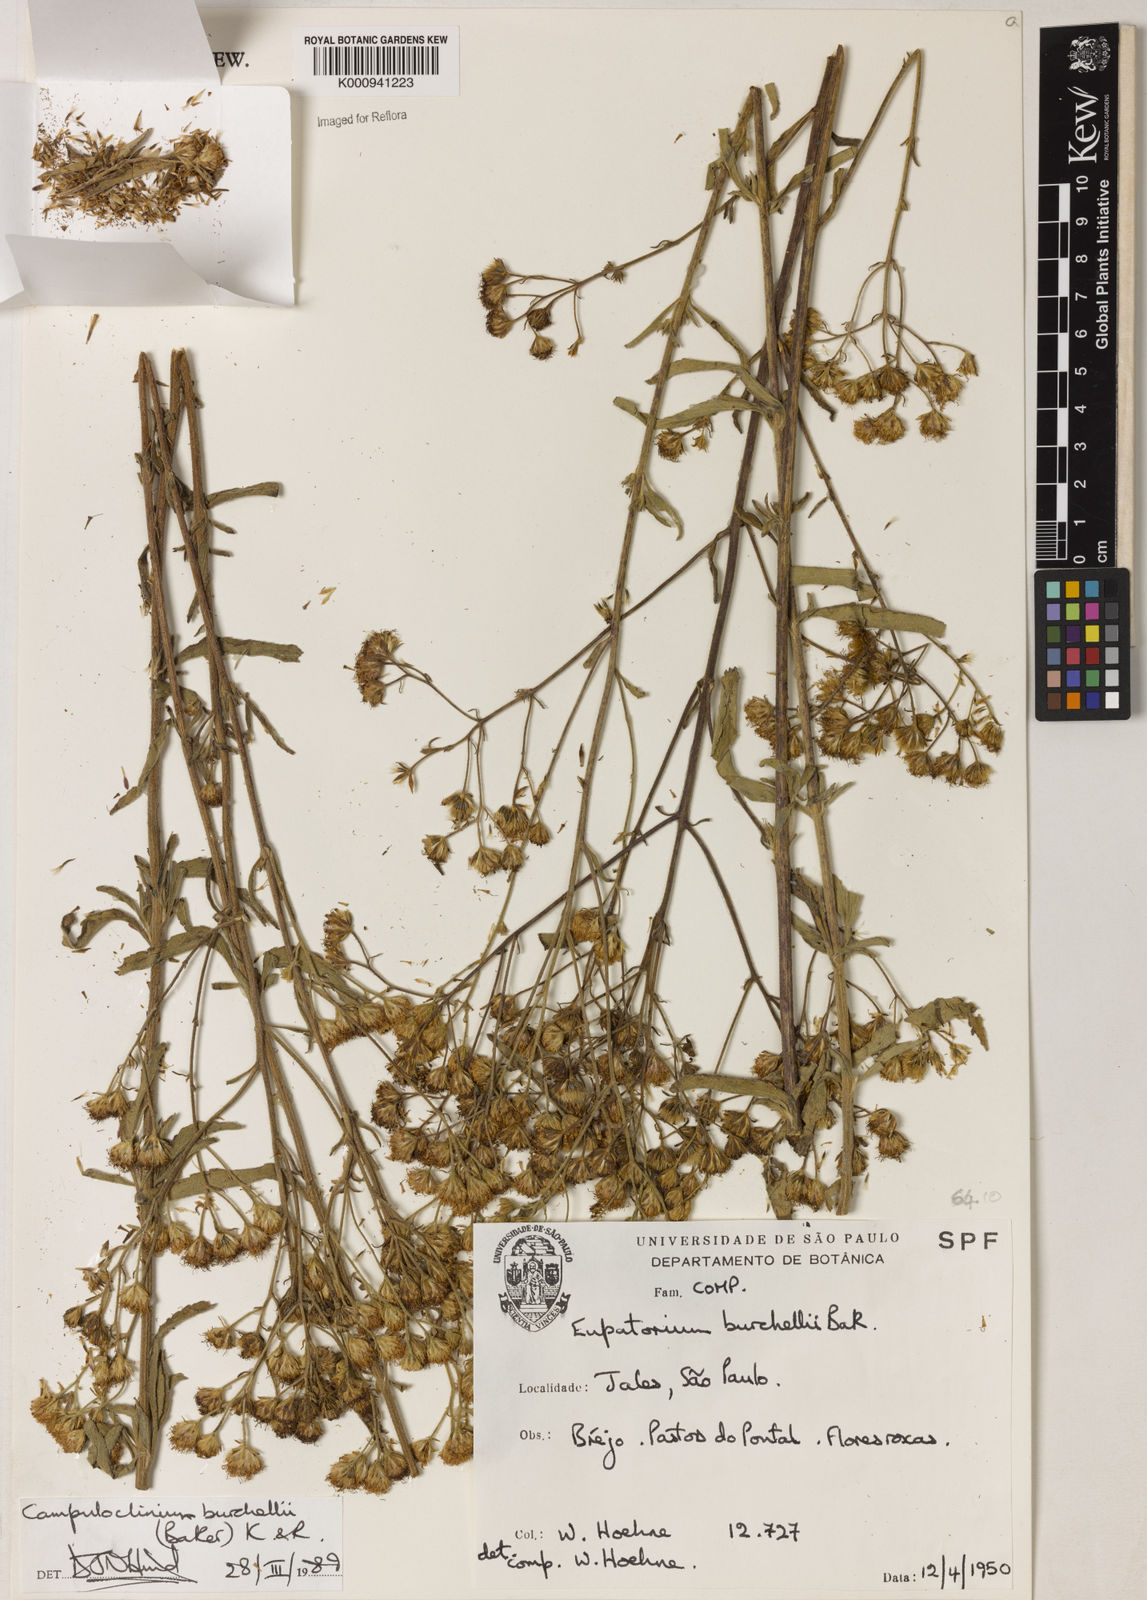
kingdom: Plantae
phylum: Tracheophyta
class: Magnoliopsida
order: Asterales
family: Asteraceae
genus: Campuloclinium
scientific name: Campuloclinium burchellii
